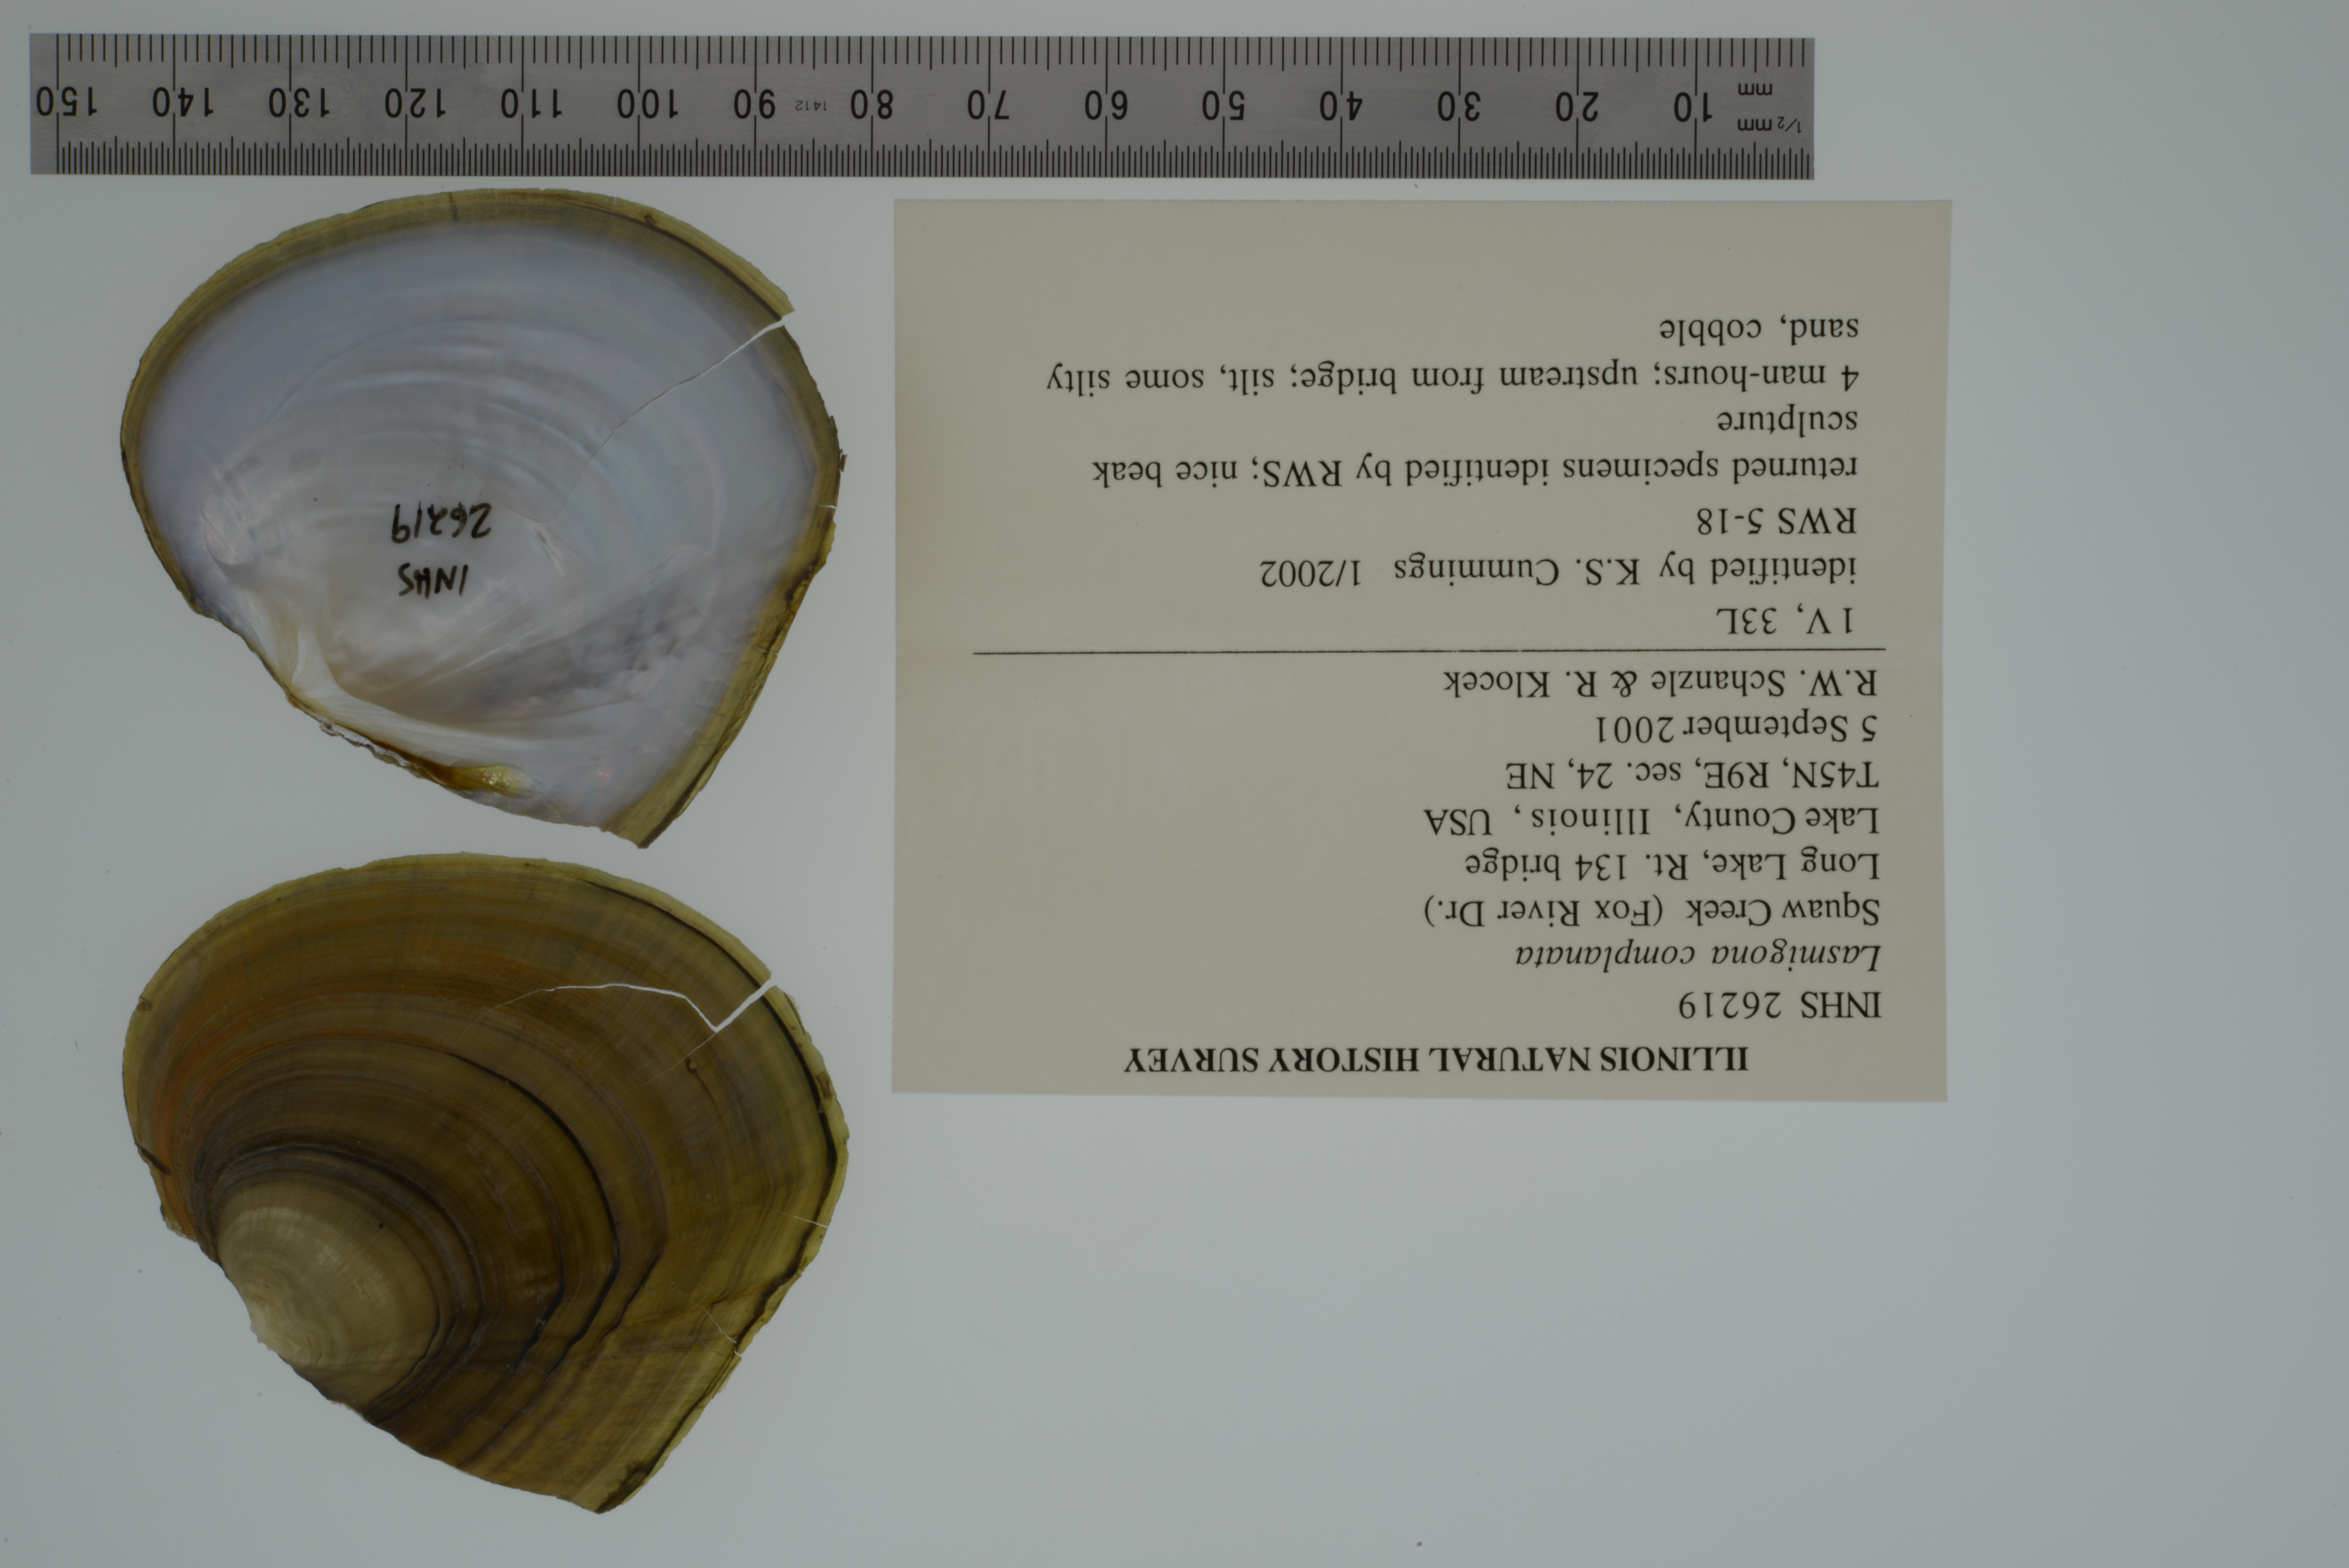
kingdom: Animalia
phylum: Mollusca
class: Bivalvia
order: Unionida
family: Unionidae
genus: Lasmigona
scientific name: Lasmigona complanata
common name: White heelsplitter
